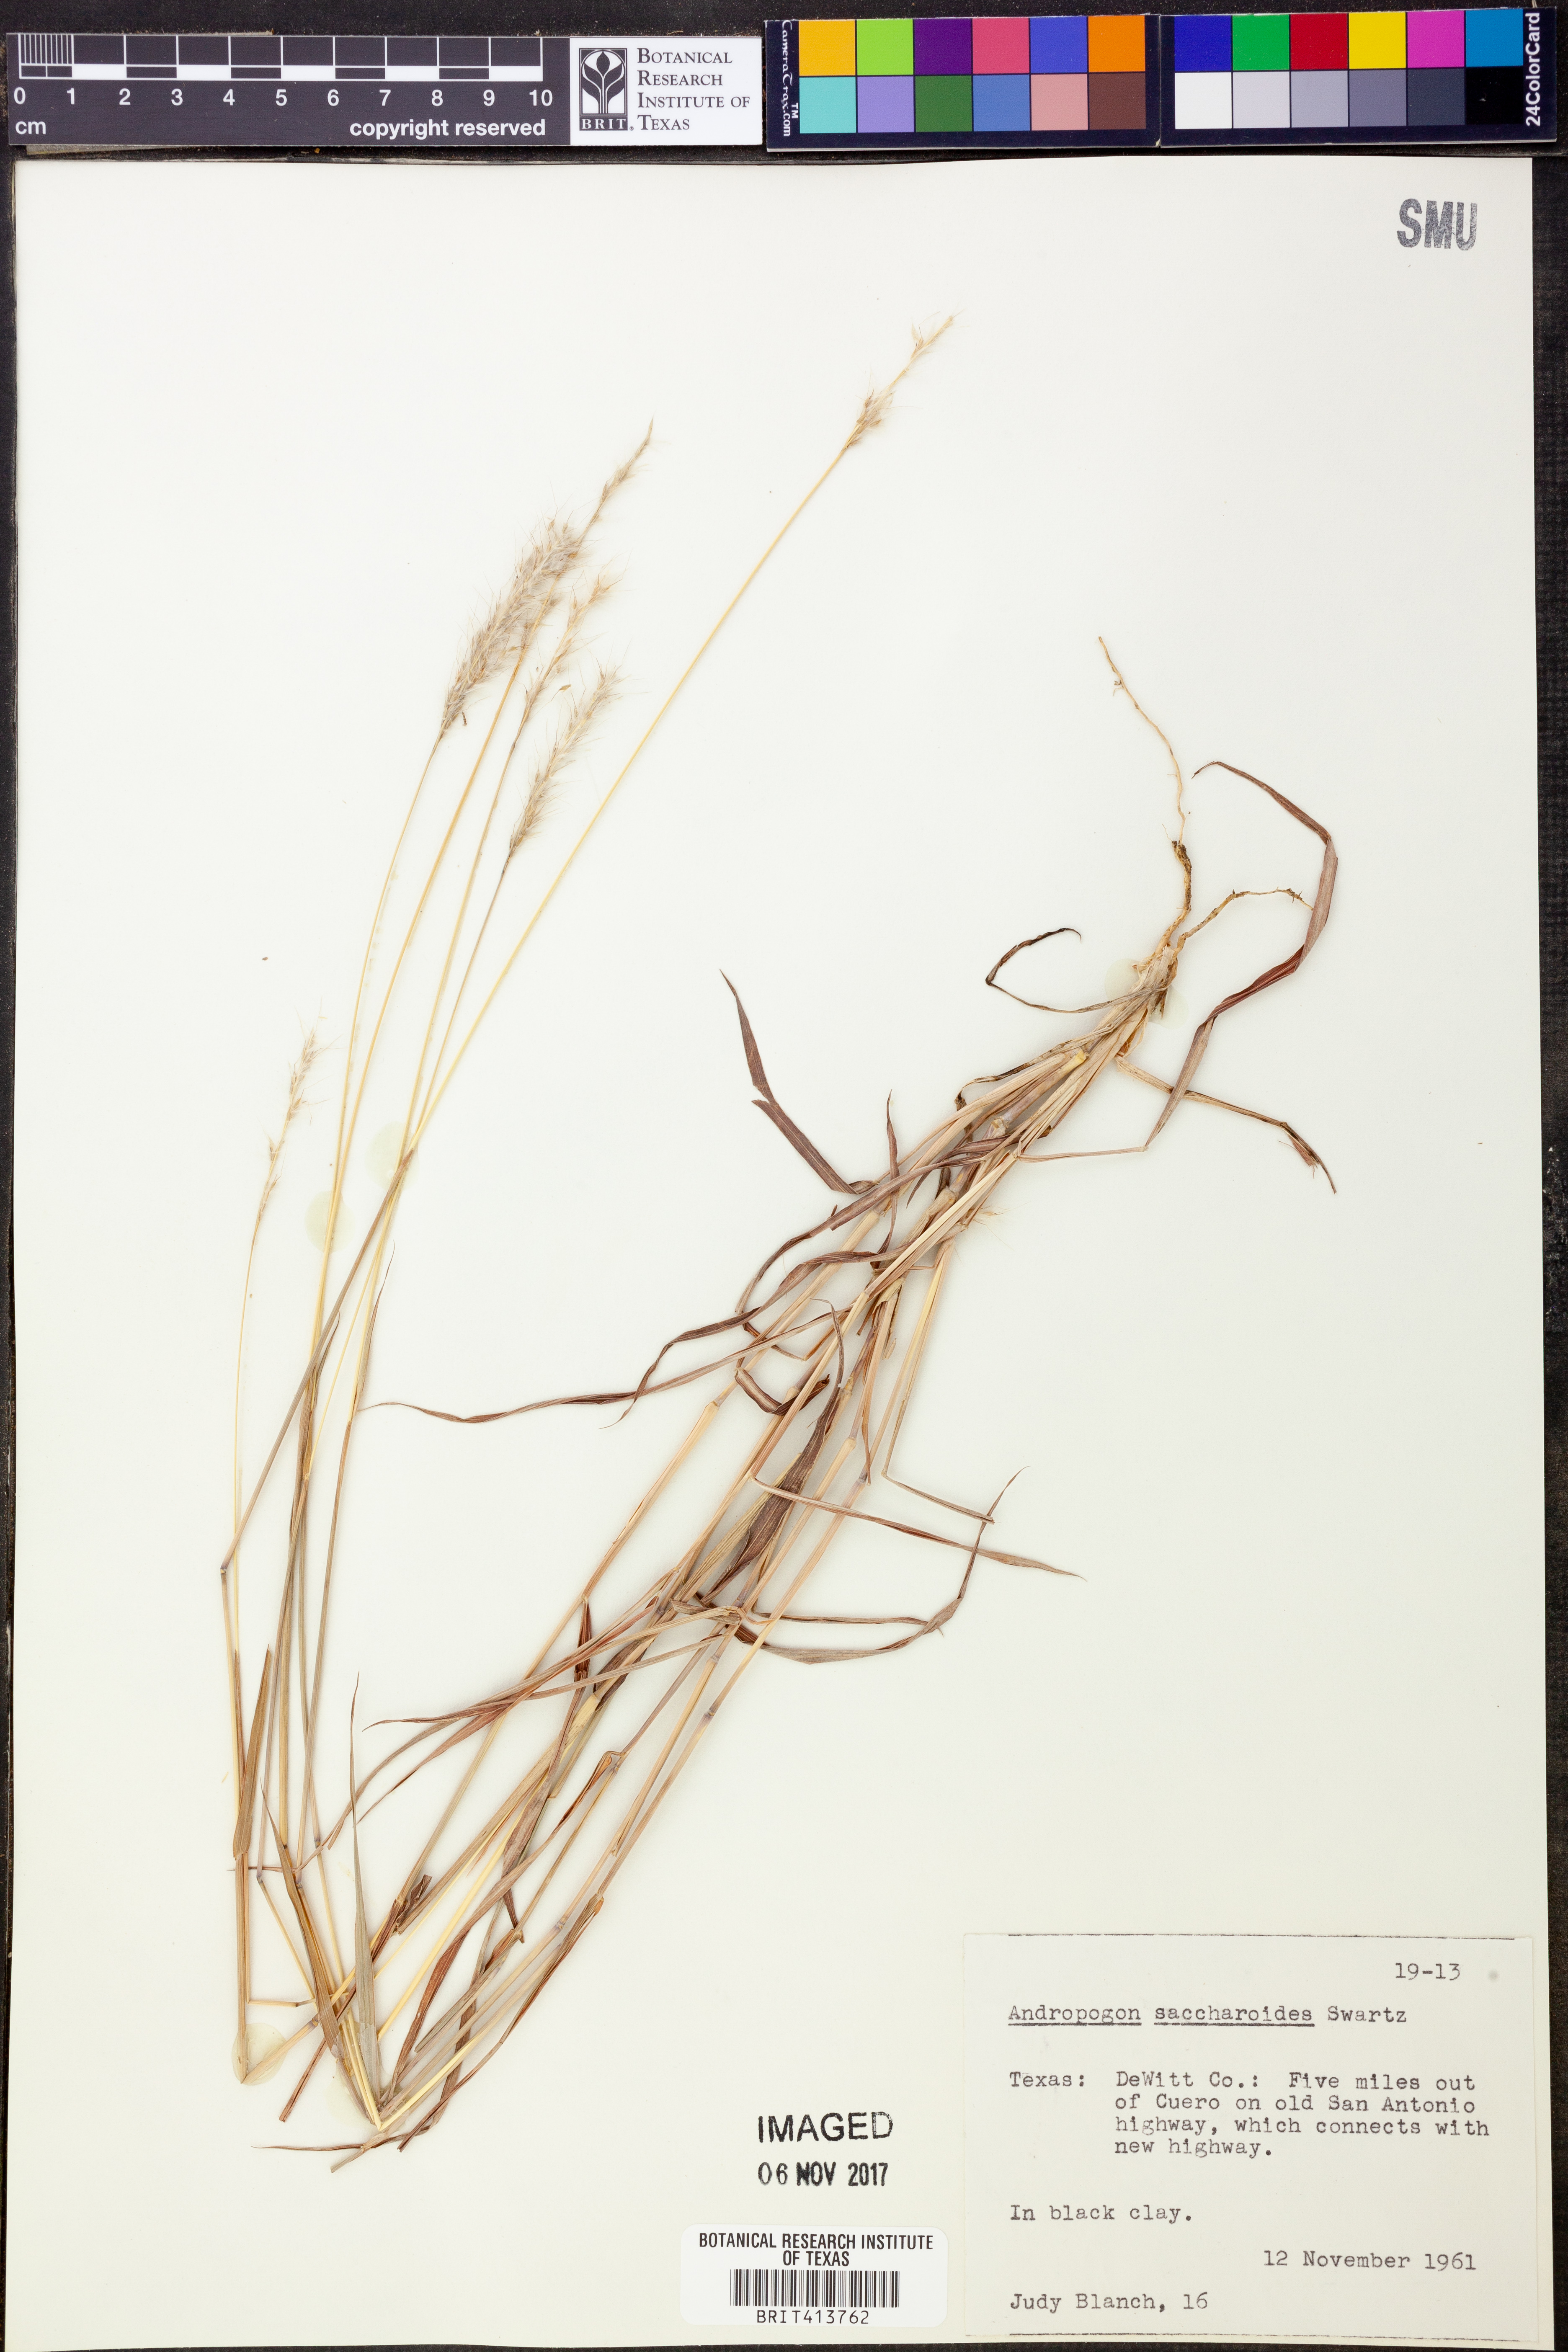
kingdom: Plantae
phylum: Tracheophyta
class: Liliopsida
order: Poales
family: Poaceae
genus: Bothriochloa
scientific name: Bothriochloa saccharoides
